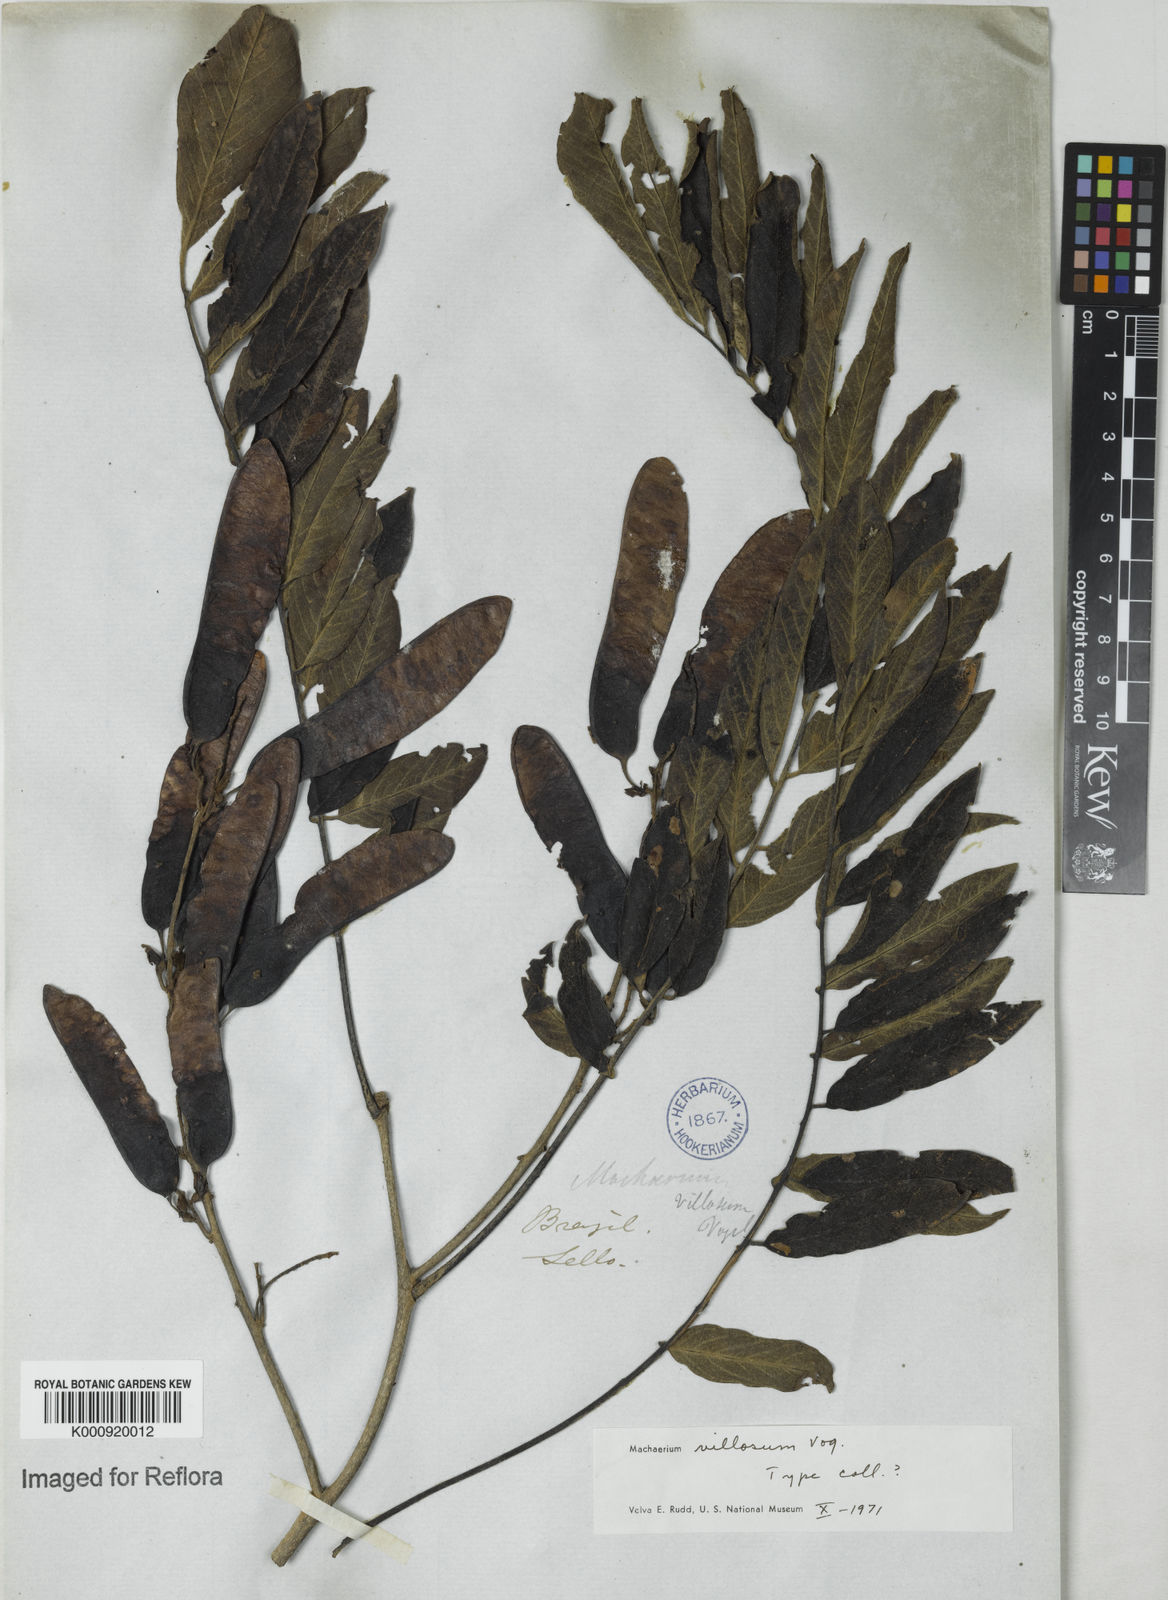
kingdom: Plantae
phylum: Tracheophyta
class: Magnoliopsida
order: Fabales
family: Fabaceae
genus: Machaerium
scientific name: Machaerium villosum
